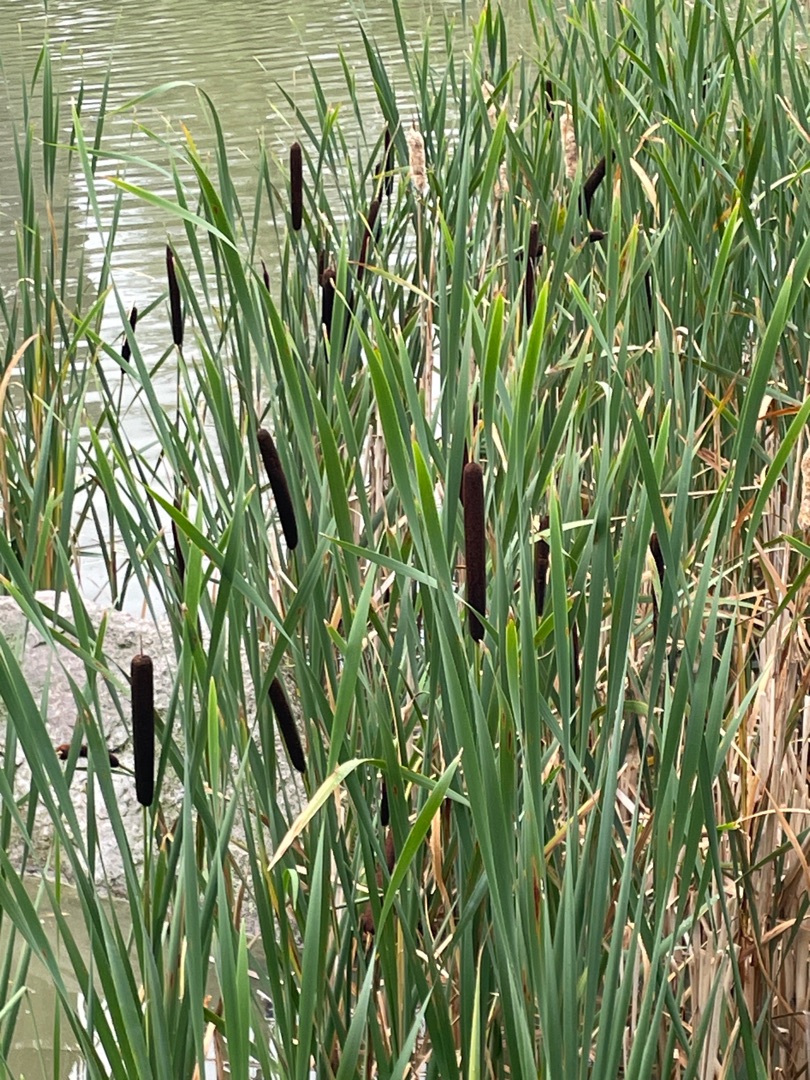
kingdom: Plantae
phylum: Tracheophyta
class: Liliopsida
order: Poales
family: Typhaceae
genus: Typha
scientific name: Typha latifolia
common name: Bredbladet dunhammer
